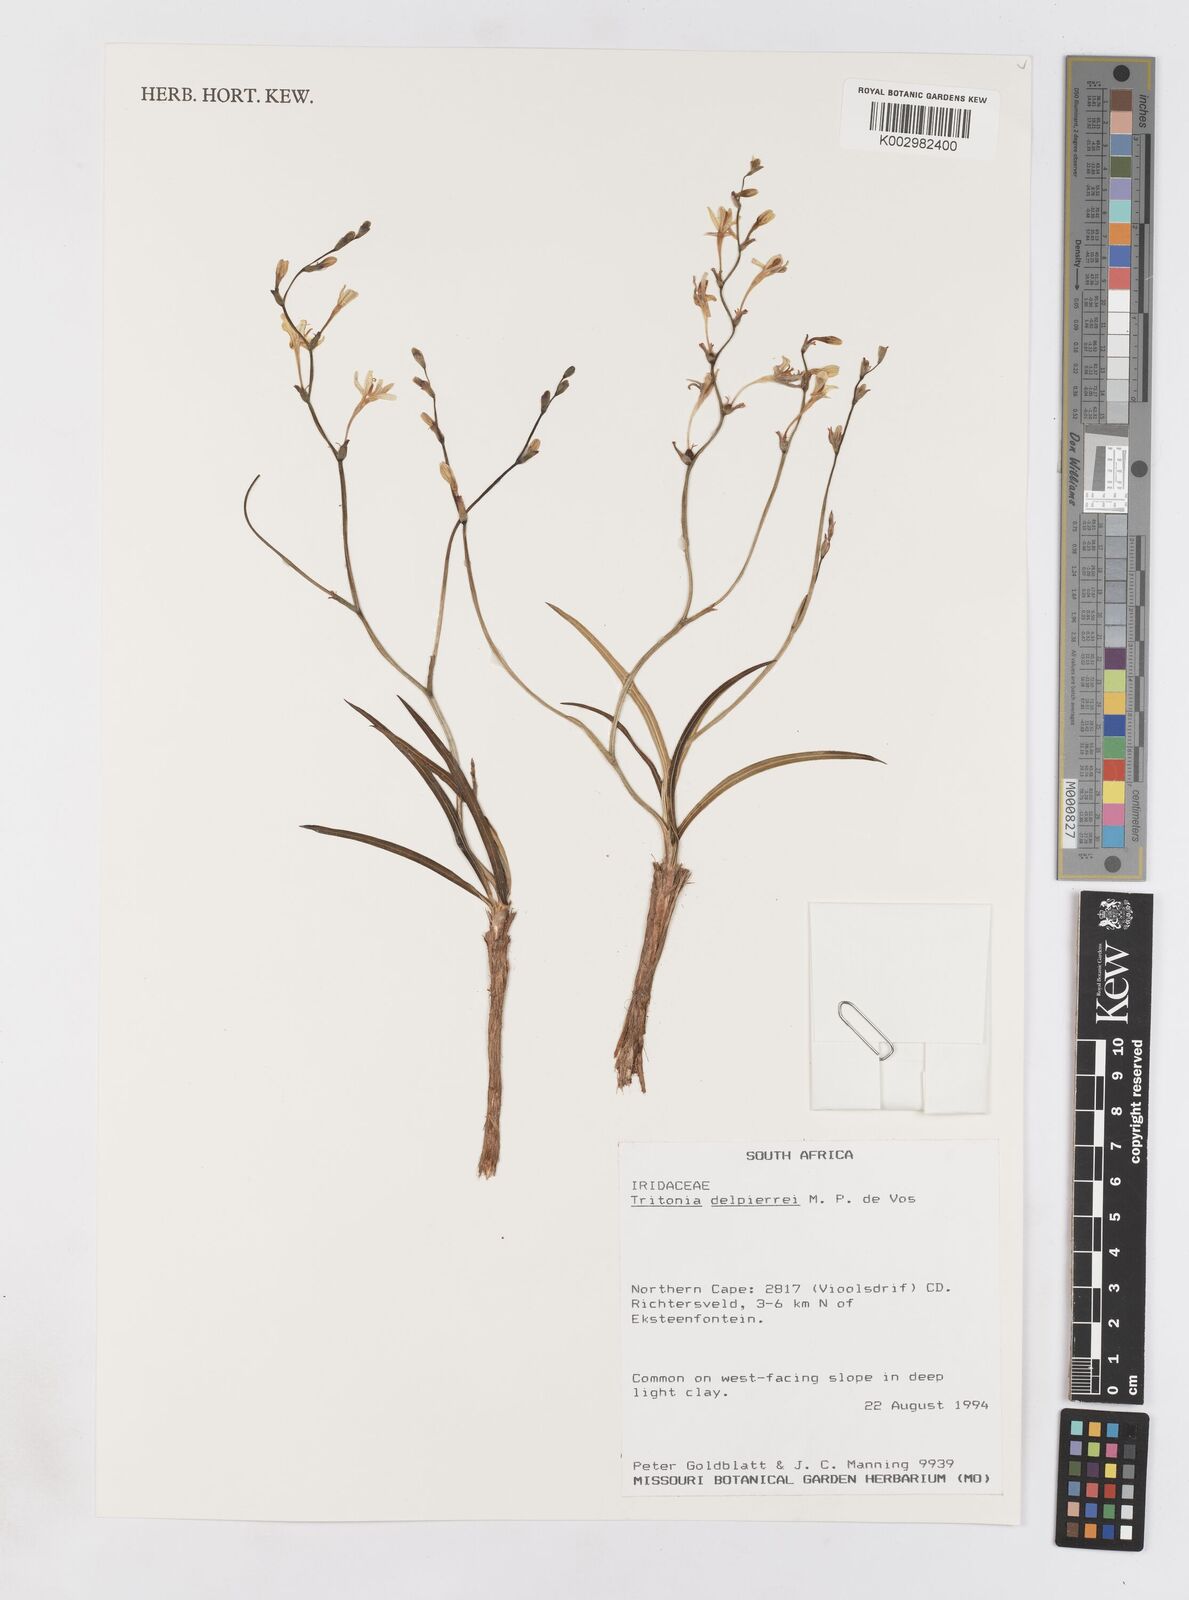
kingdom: Plantae
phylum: Tracheophyta
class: Liliopsida
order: Asparagales
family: Iridaceae
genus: Tritonia
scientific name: Tritonia delpierrei
